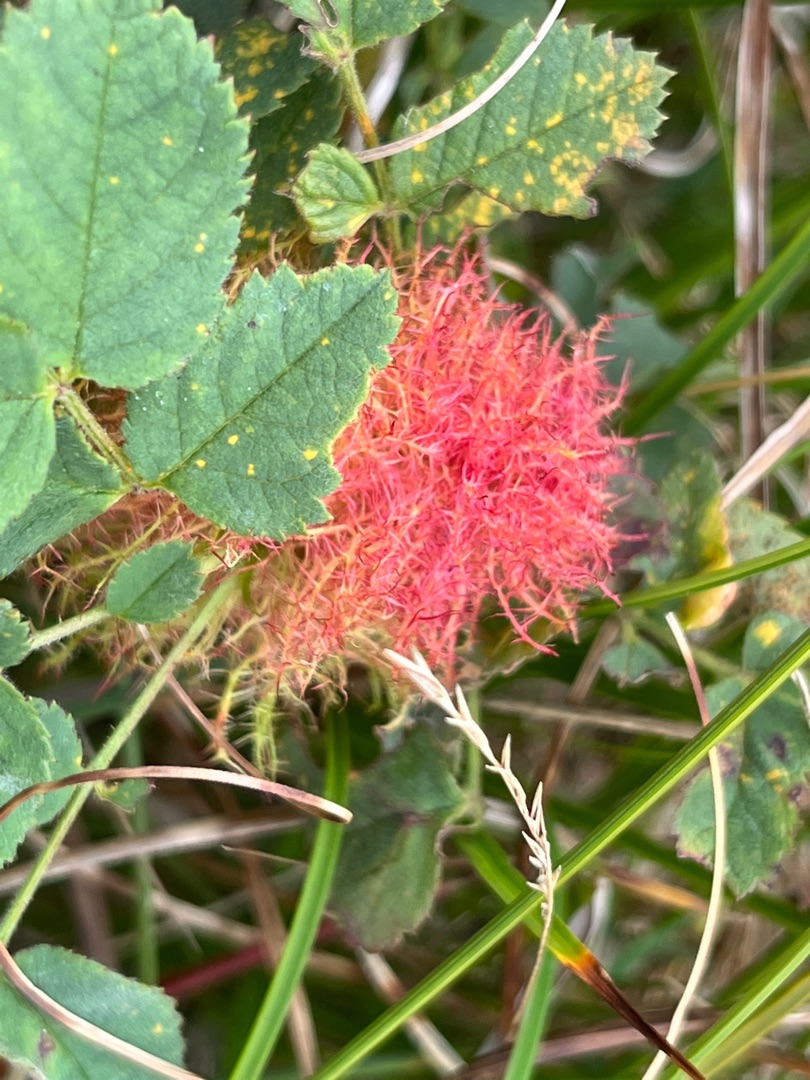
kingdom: Animalia
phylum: Arthropoda
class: Insecta
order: Hymenoptera
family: Cynipidae
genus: Diplolepis
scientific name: Diplolepis rosae
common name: Bedeguargalhveps
